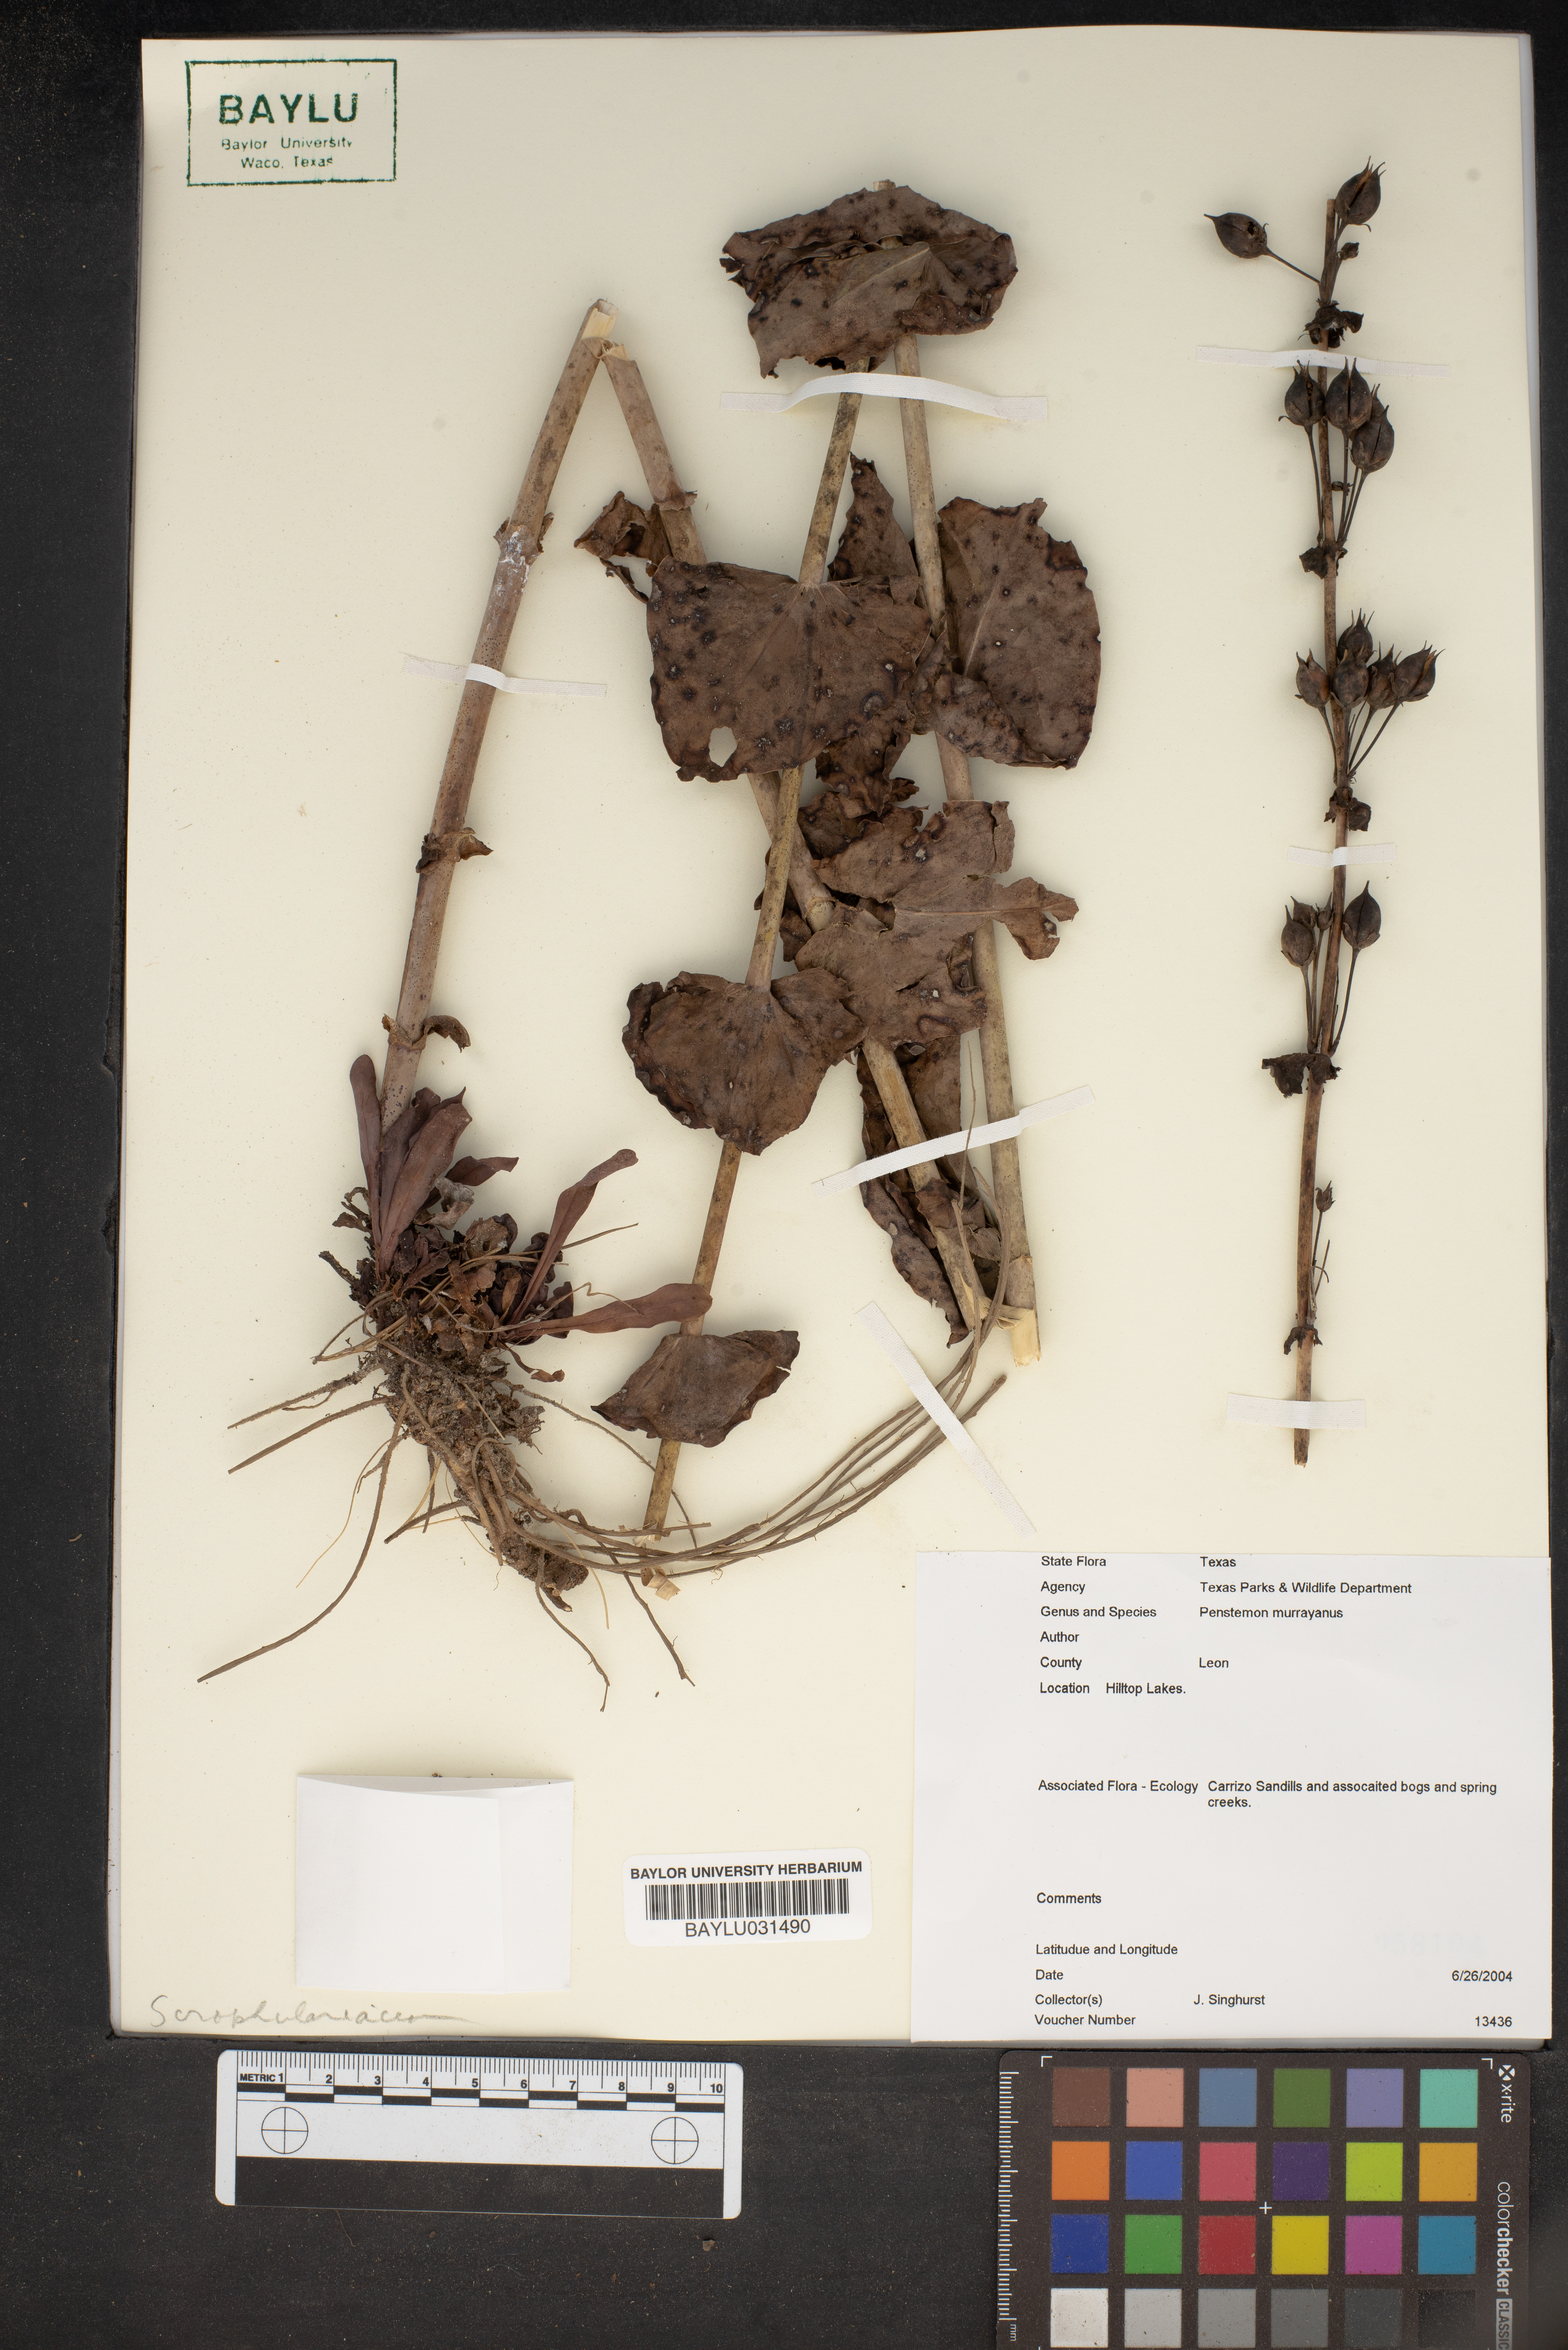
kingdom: Plantae
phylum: Tracheophyta
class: Magnoliopsida
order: Lamiales
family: Plantaginaceae
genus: Penstemon
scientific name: Penstemon murrayanus
